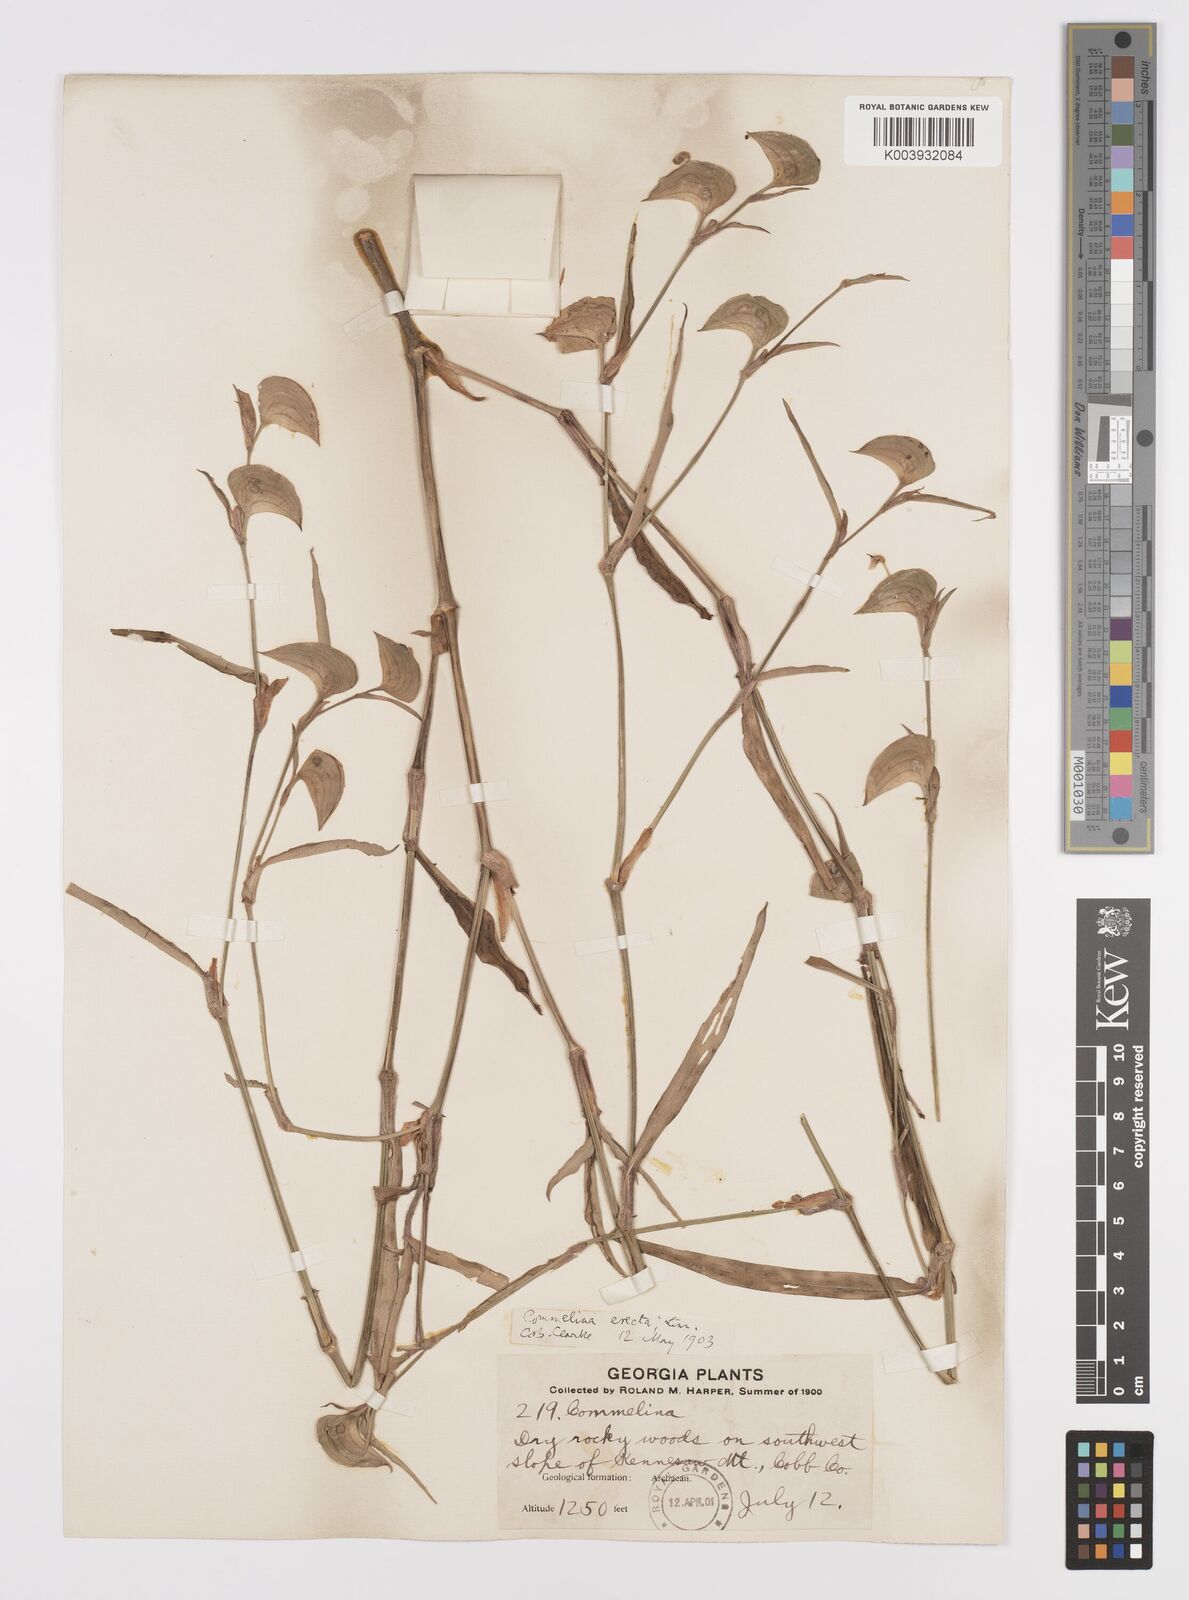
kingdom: Plantae
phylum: Tracheophyta
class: Liliopsida
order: Commelinales
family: Commelinaceae
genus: Commelina
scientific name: Commelina erecta
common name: Blousel blommetjie
